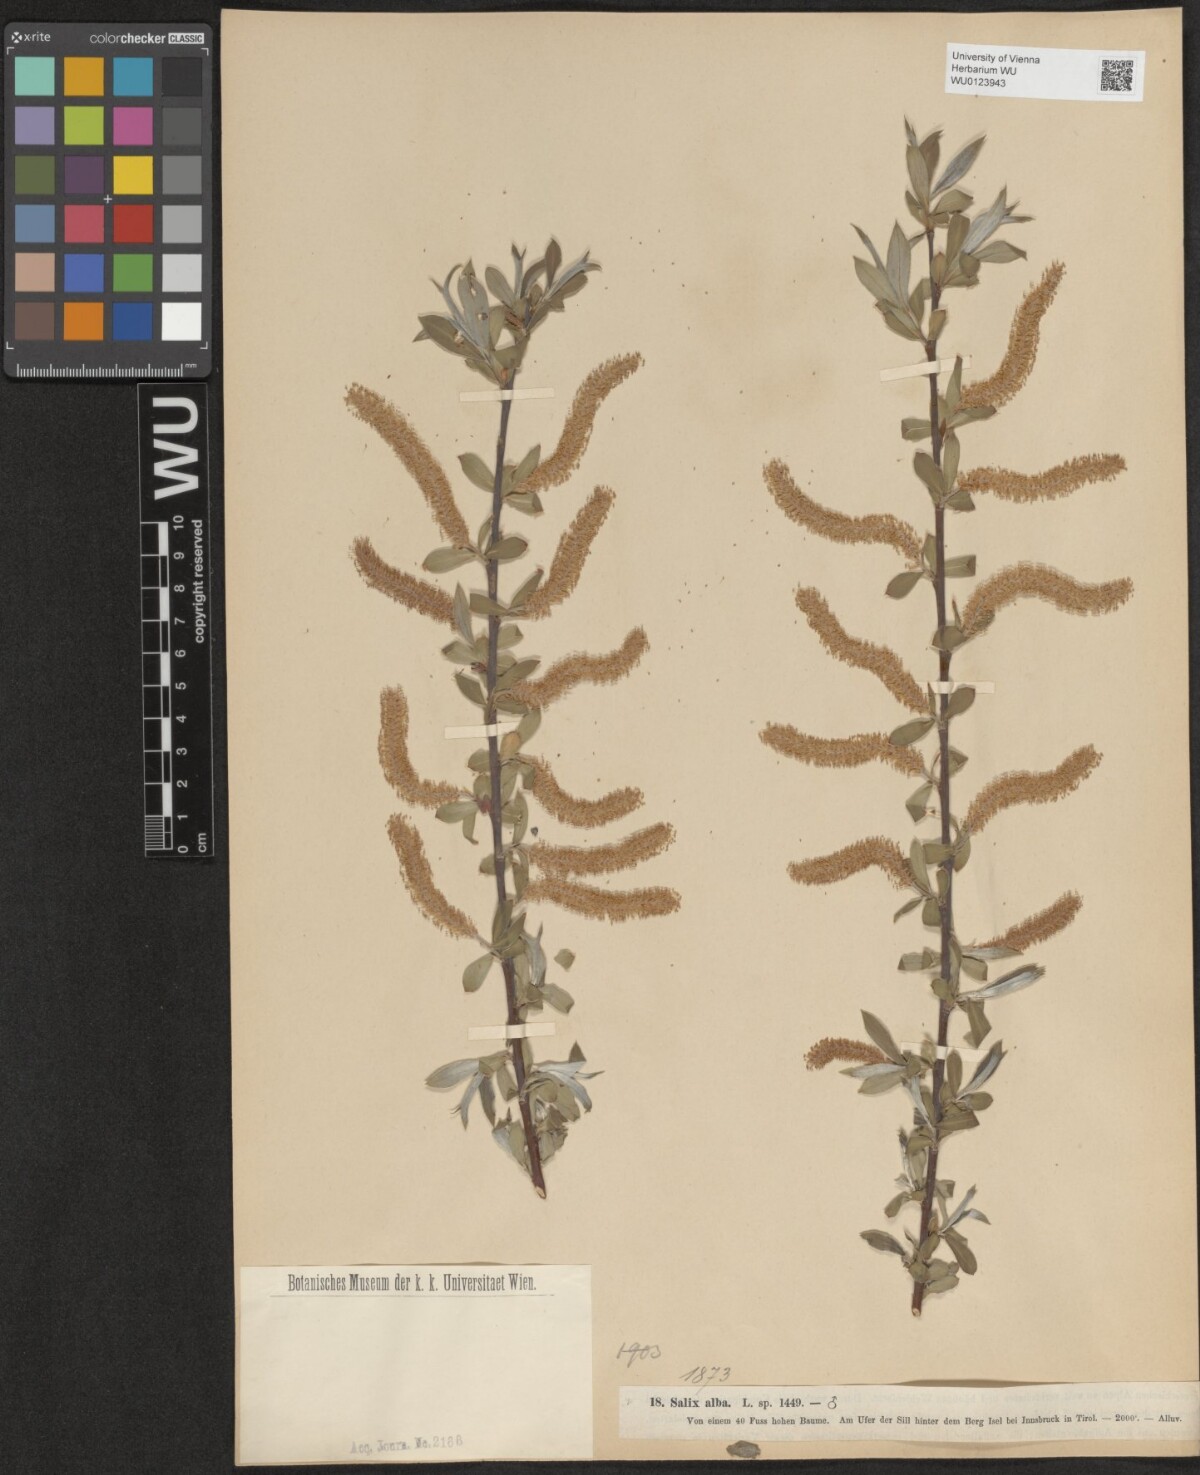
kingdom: Plantae
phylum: Tracheophyta
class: Magnoliopsida
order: Malpighiales
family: Salicaceae
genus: Salix
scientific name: Salix alba
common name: White willow
